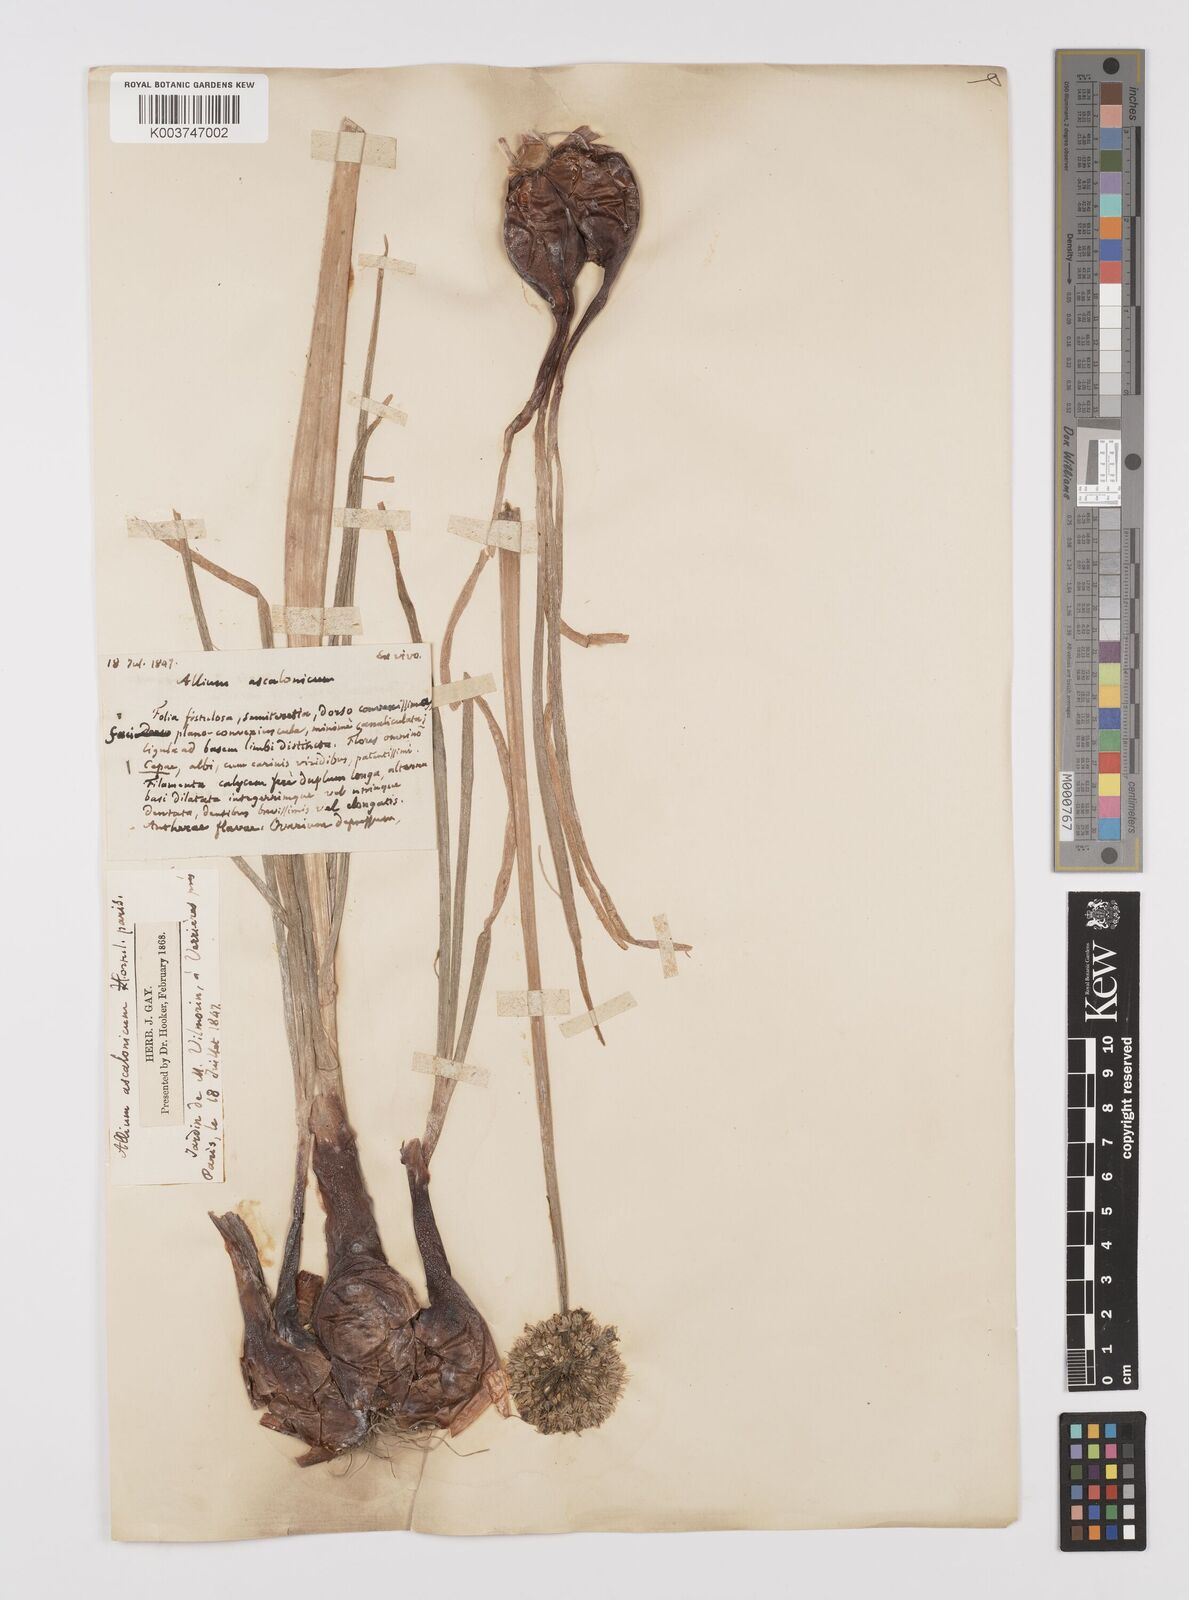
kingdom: Plantae
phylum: Tracheophyta
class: Liliopsida
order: Asparagales
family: Amaryllidaceae
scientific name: Amaryllidaceae
